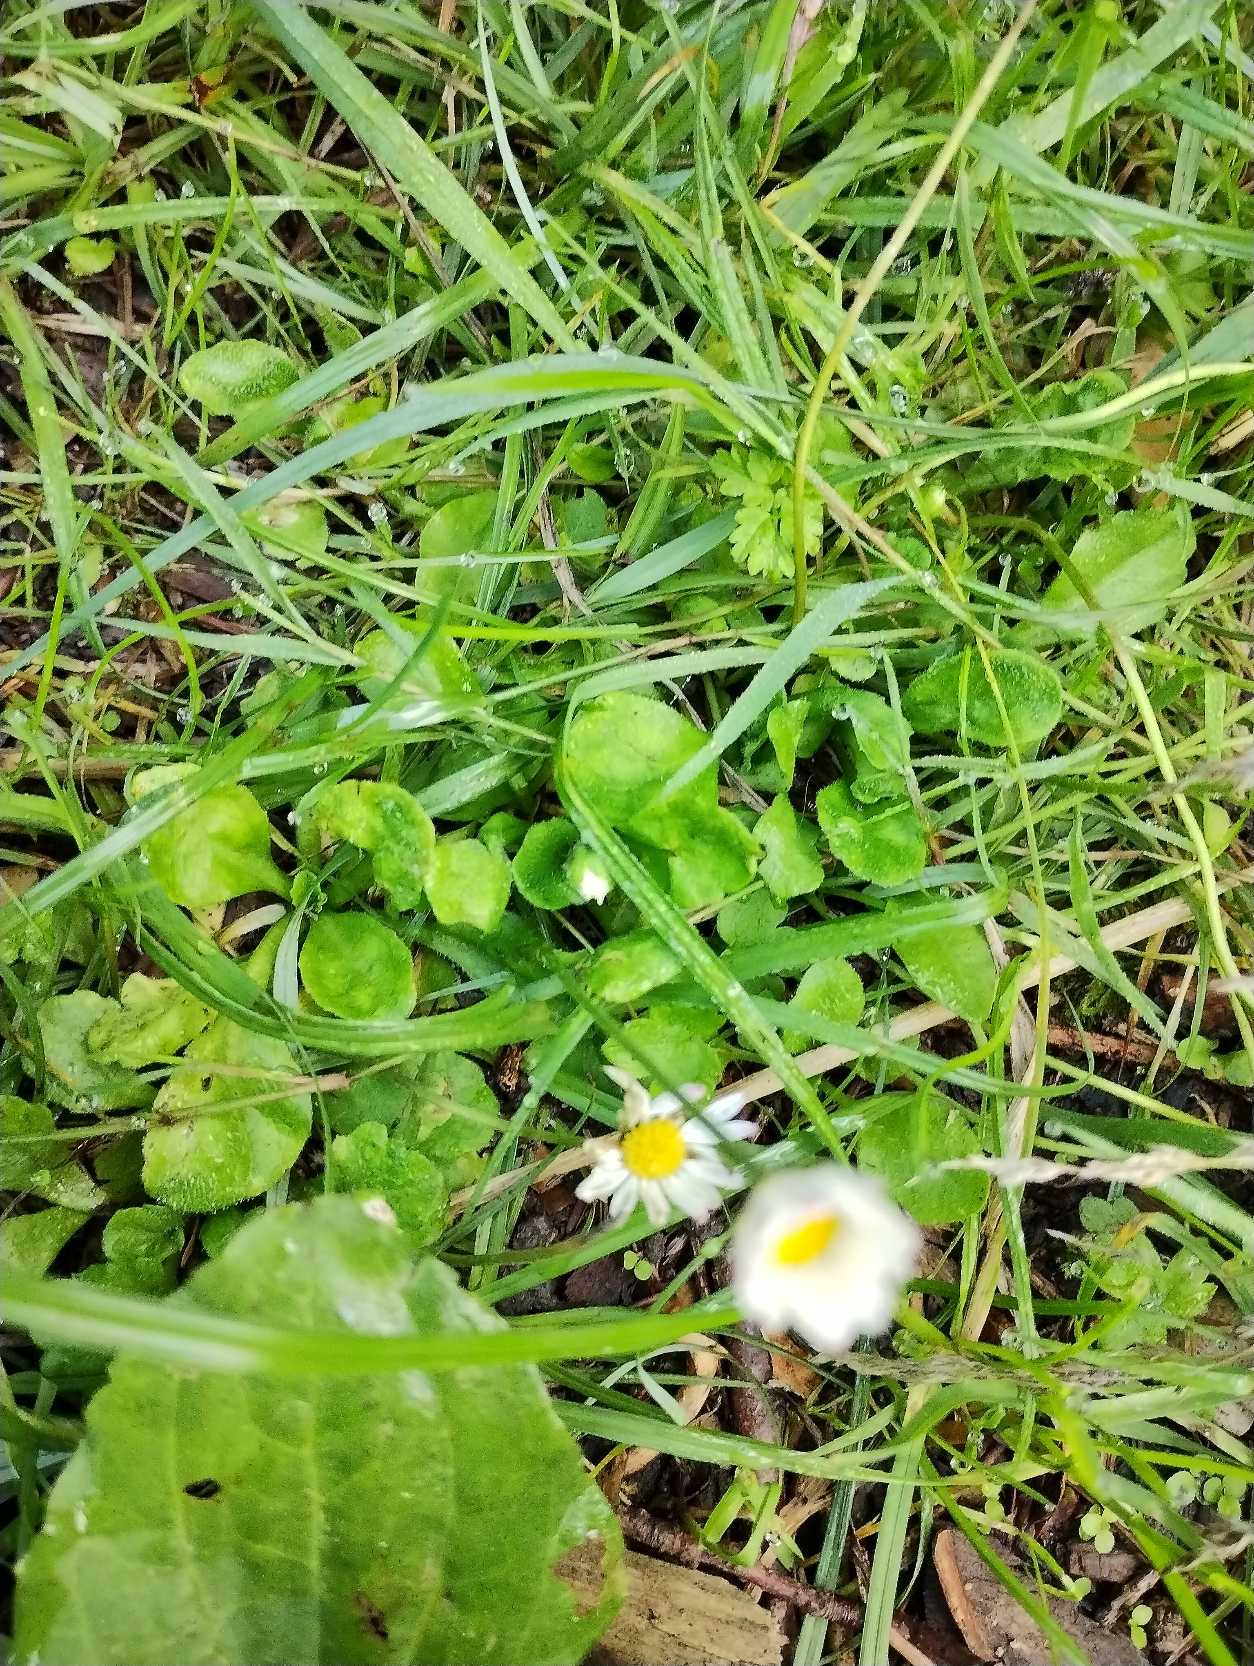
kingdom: Plantae
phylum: Tracheophyta
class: Magnoliopsida
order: Asterales
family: Asteraceae
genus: Bellis
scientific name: Bellis perennis
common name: Tusindfryd
